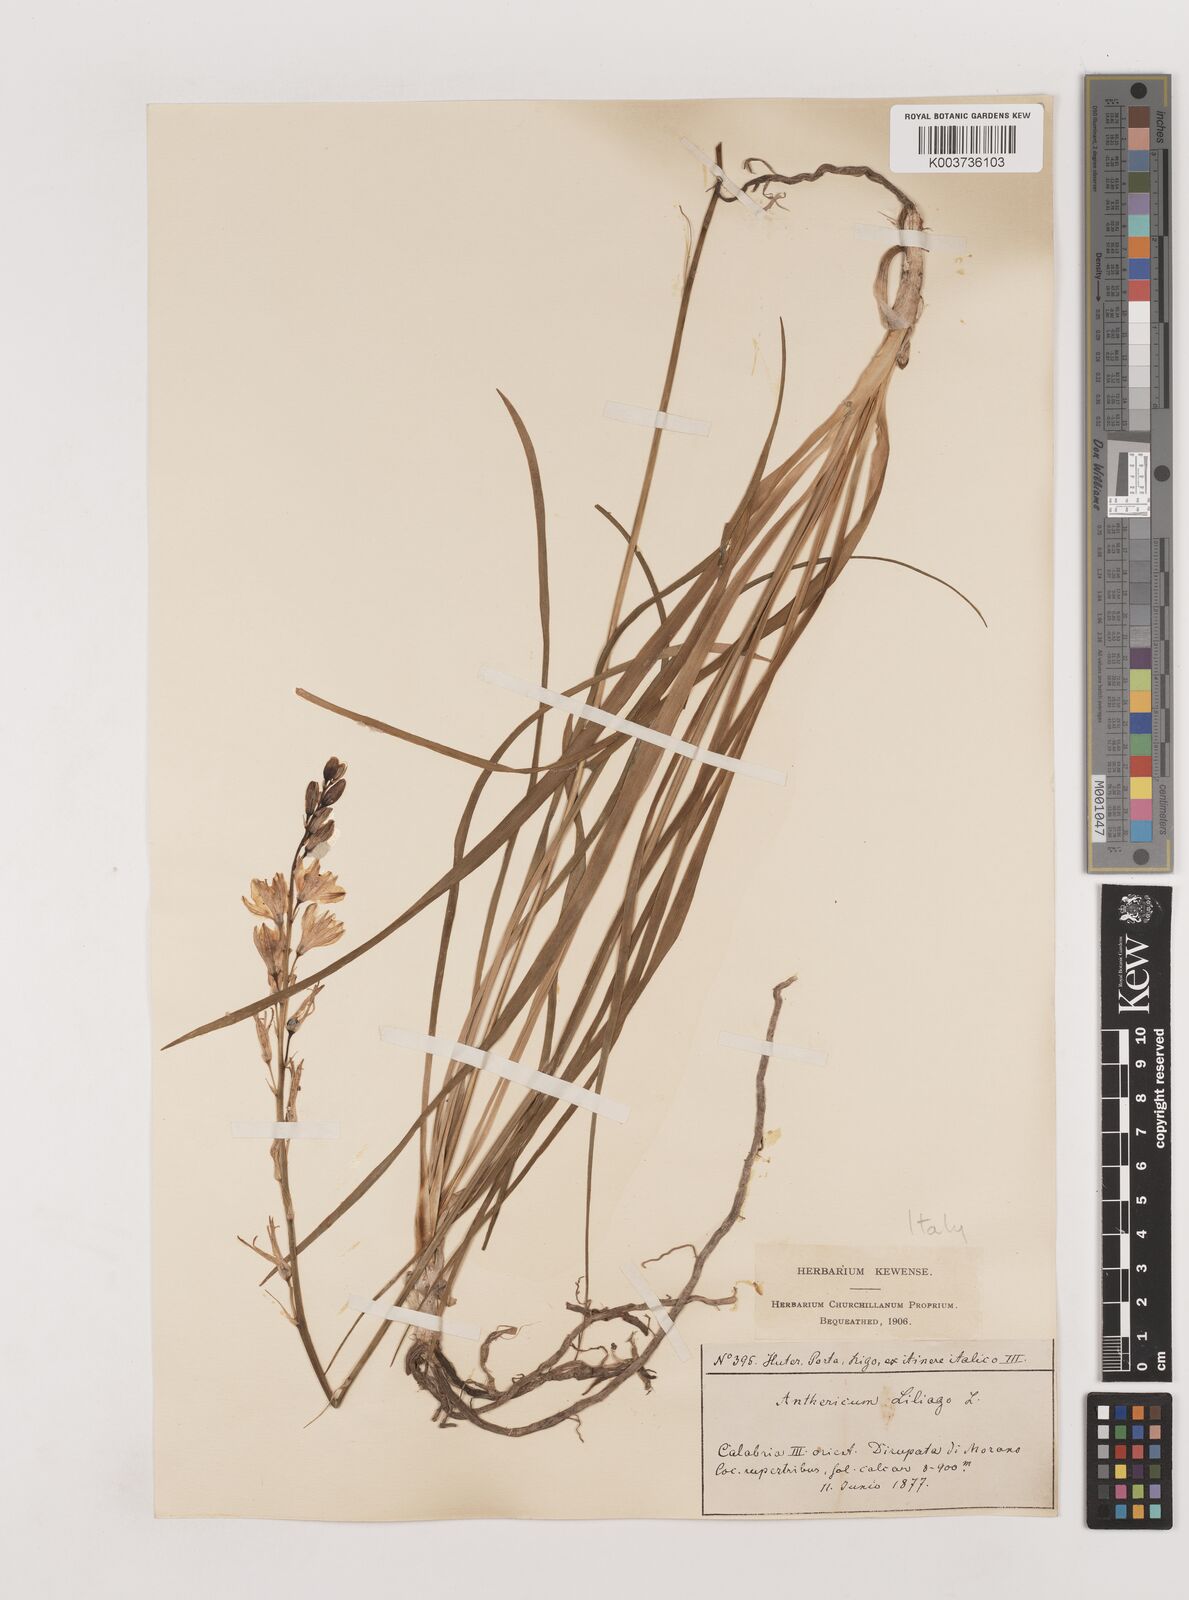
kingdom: Plantae
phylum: Tracheophyta
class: Liliopsida
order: Asparagales
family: Asparagaceae
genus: Anthericum
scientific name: Anthericum liliago
